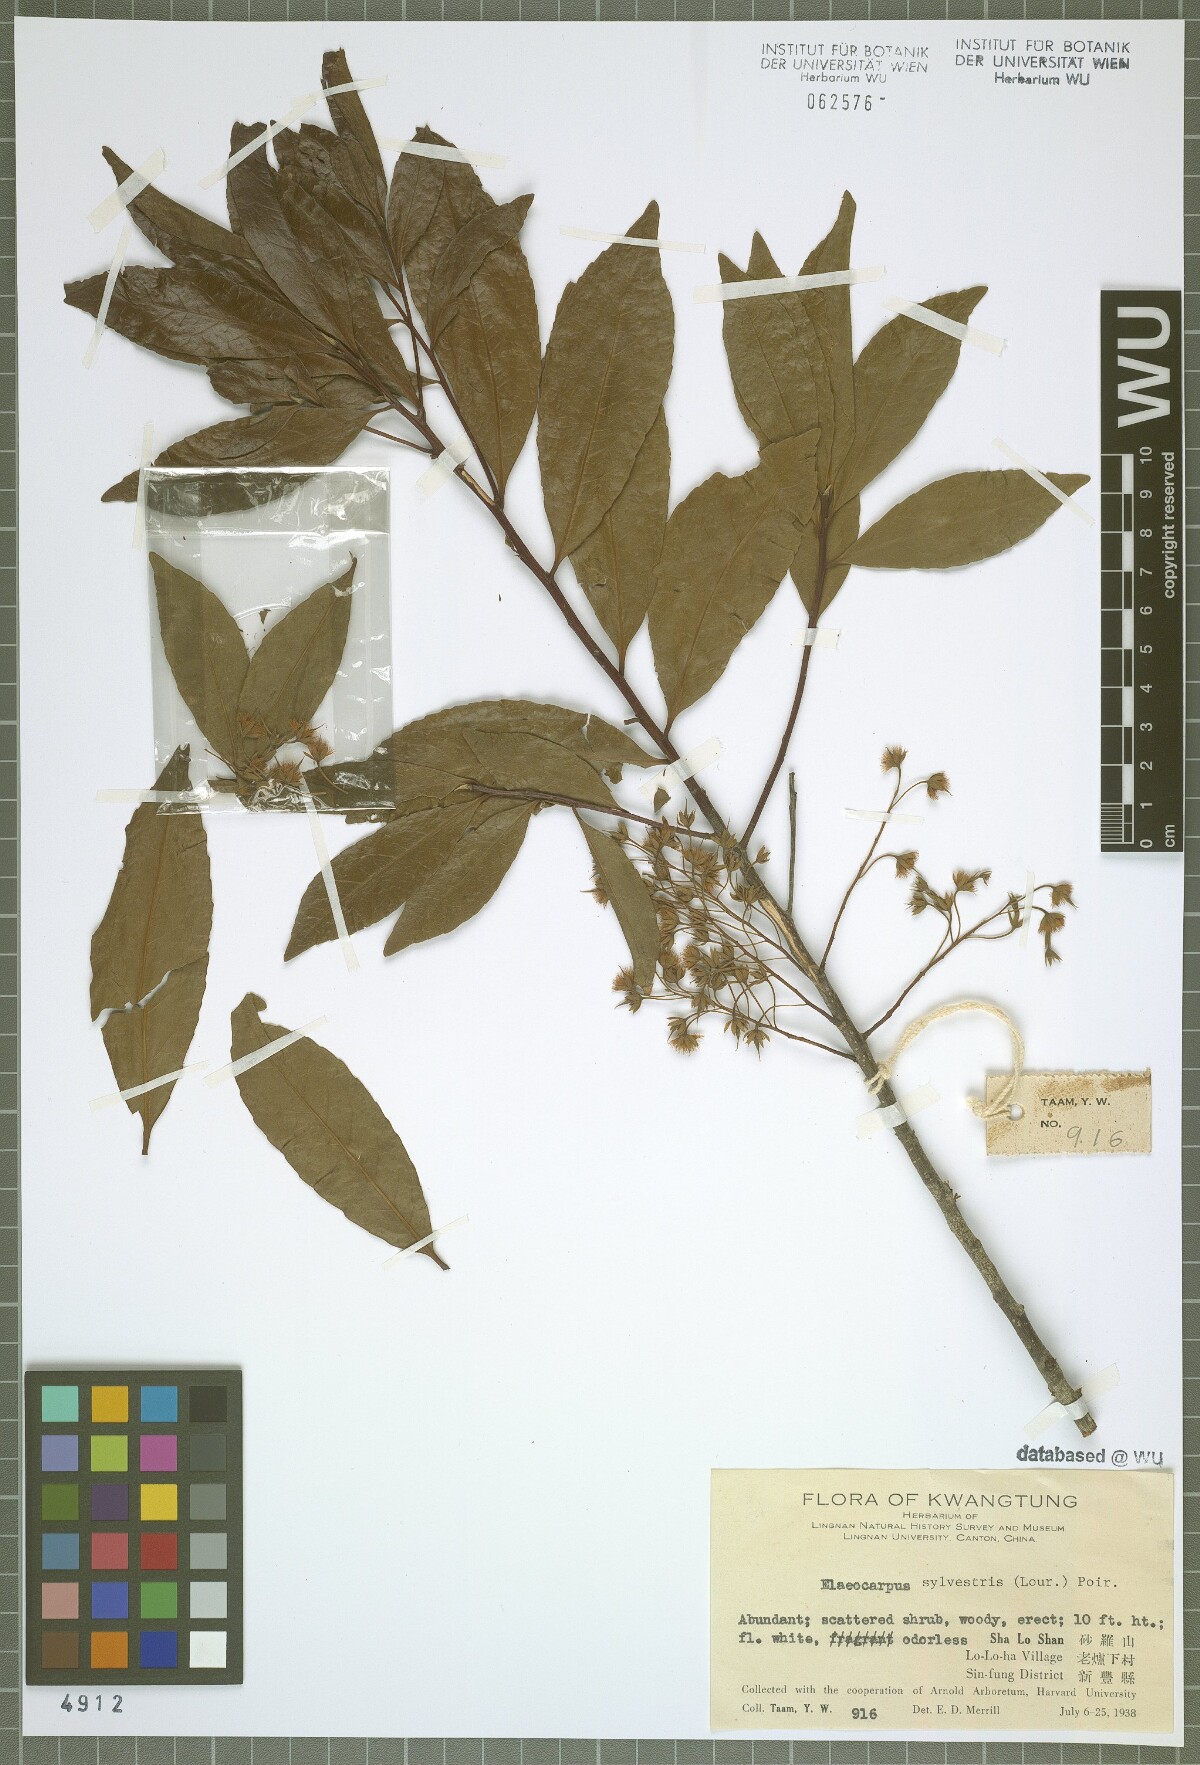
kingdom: Plantae
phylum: Tracheophyta
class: Magnoliopsida
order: Oxalidales
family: Elaeocarpaceae
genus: Elaeocarpus
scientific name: Elaeocarpus sylvestris
